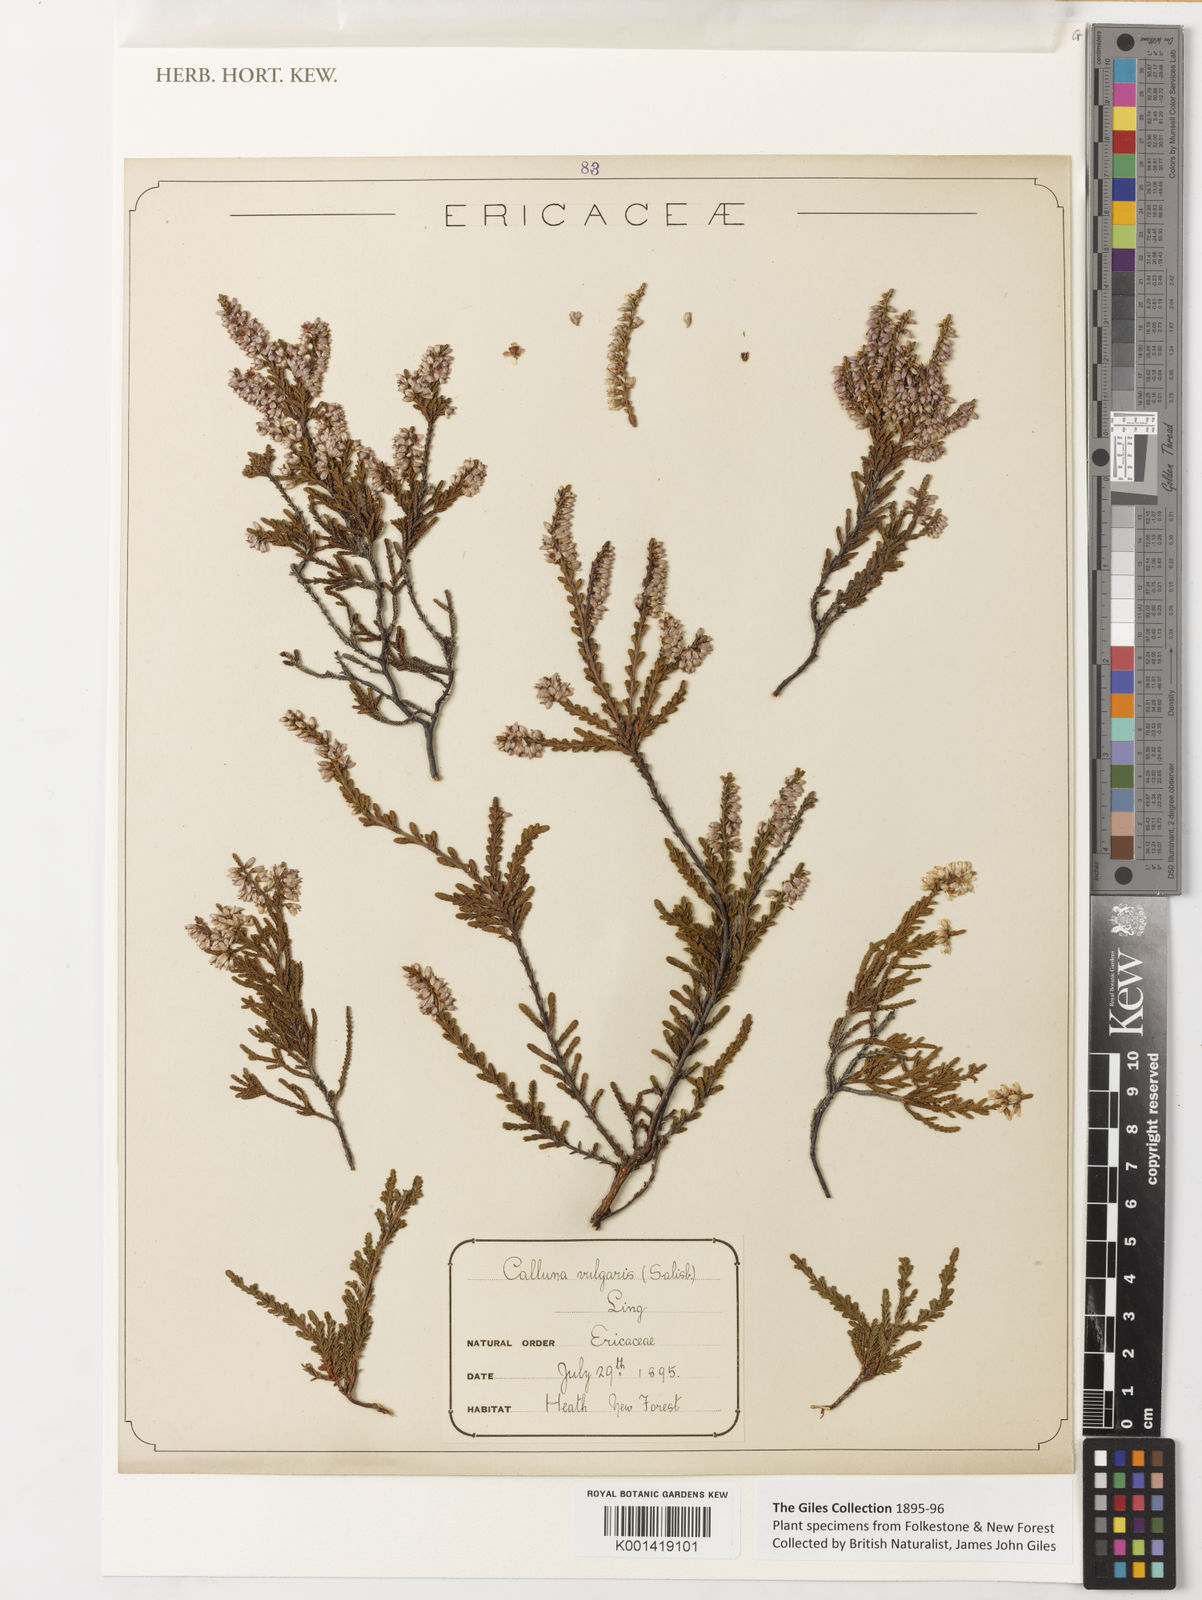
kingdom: Plantae
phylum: Tracheophyta
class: Magnoliopsida
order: Ericales
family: Ericaceae
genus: Calluna
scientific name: Calluna
